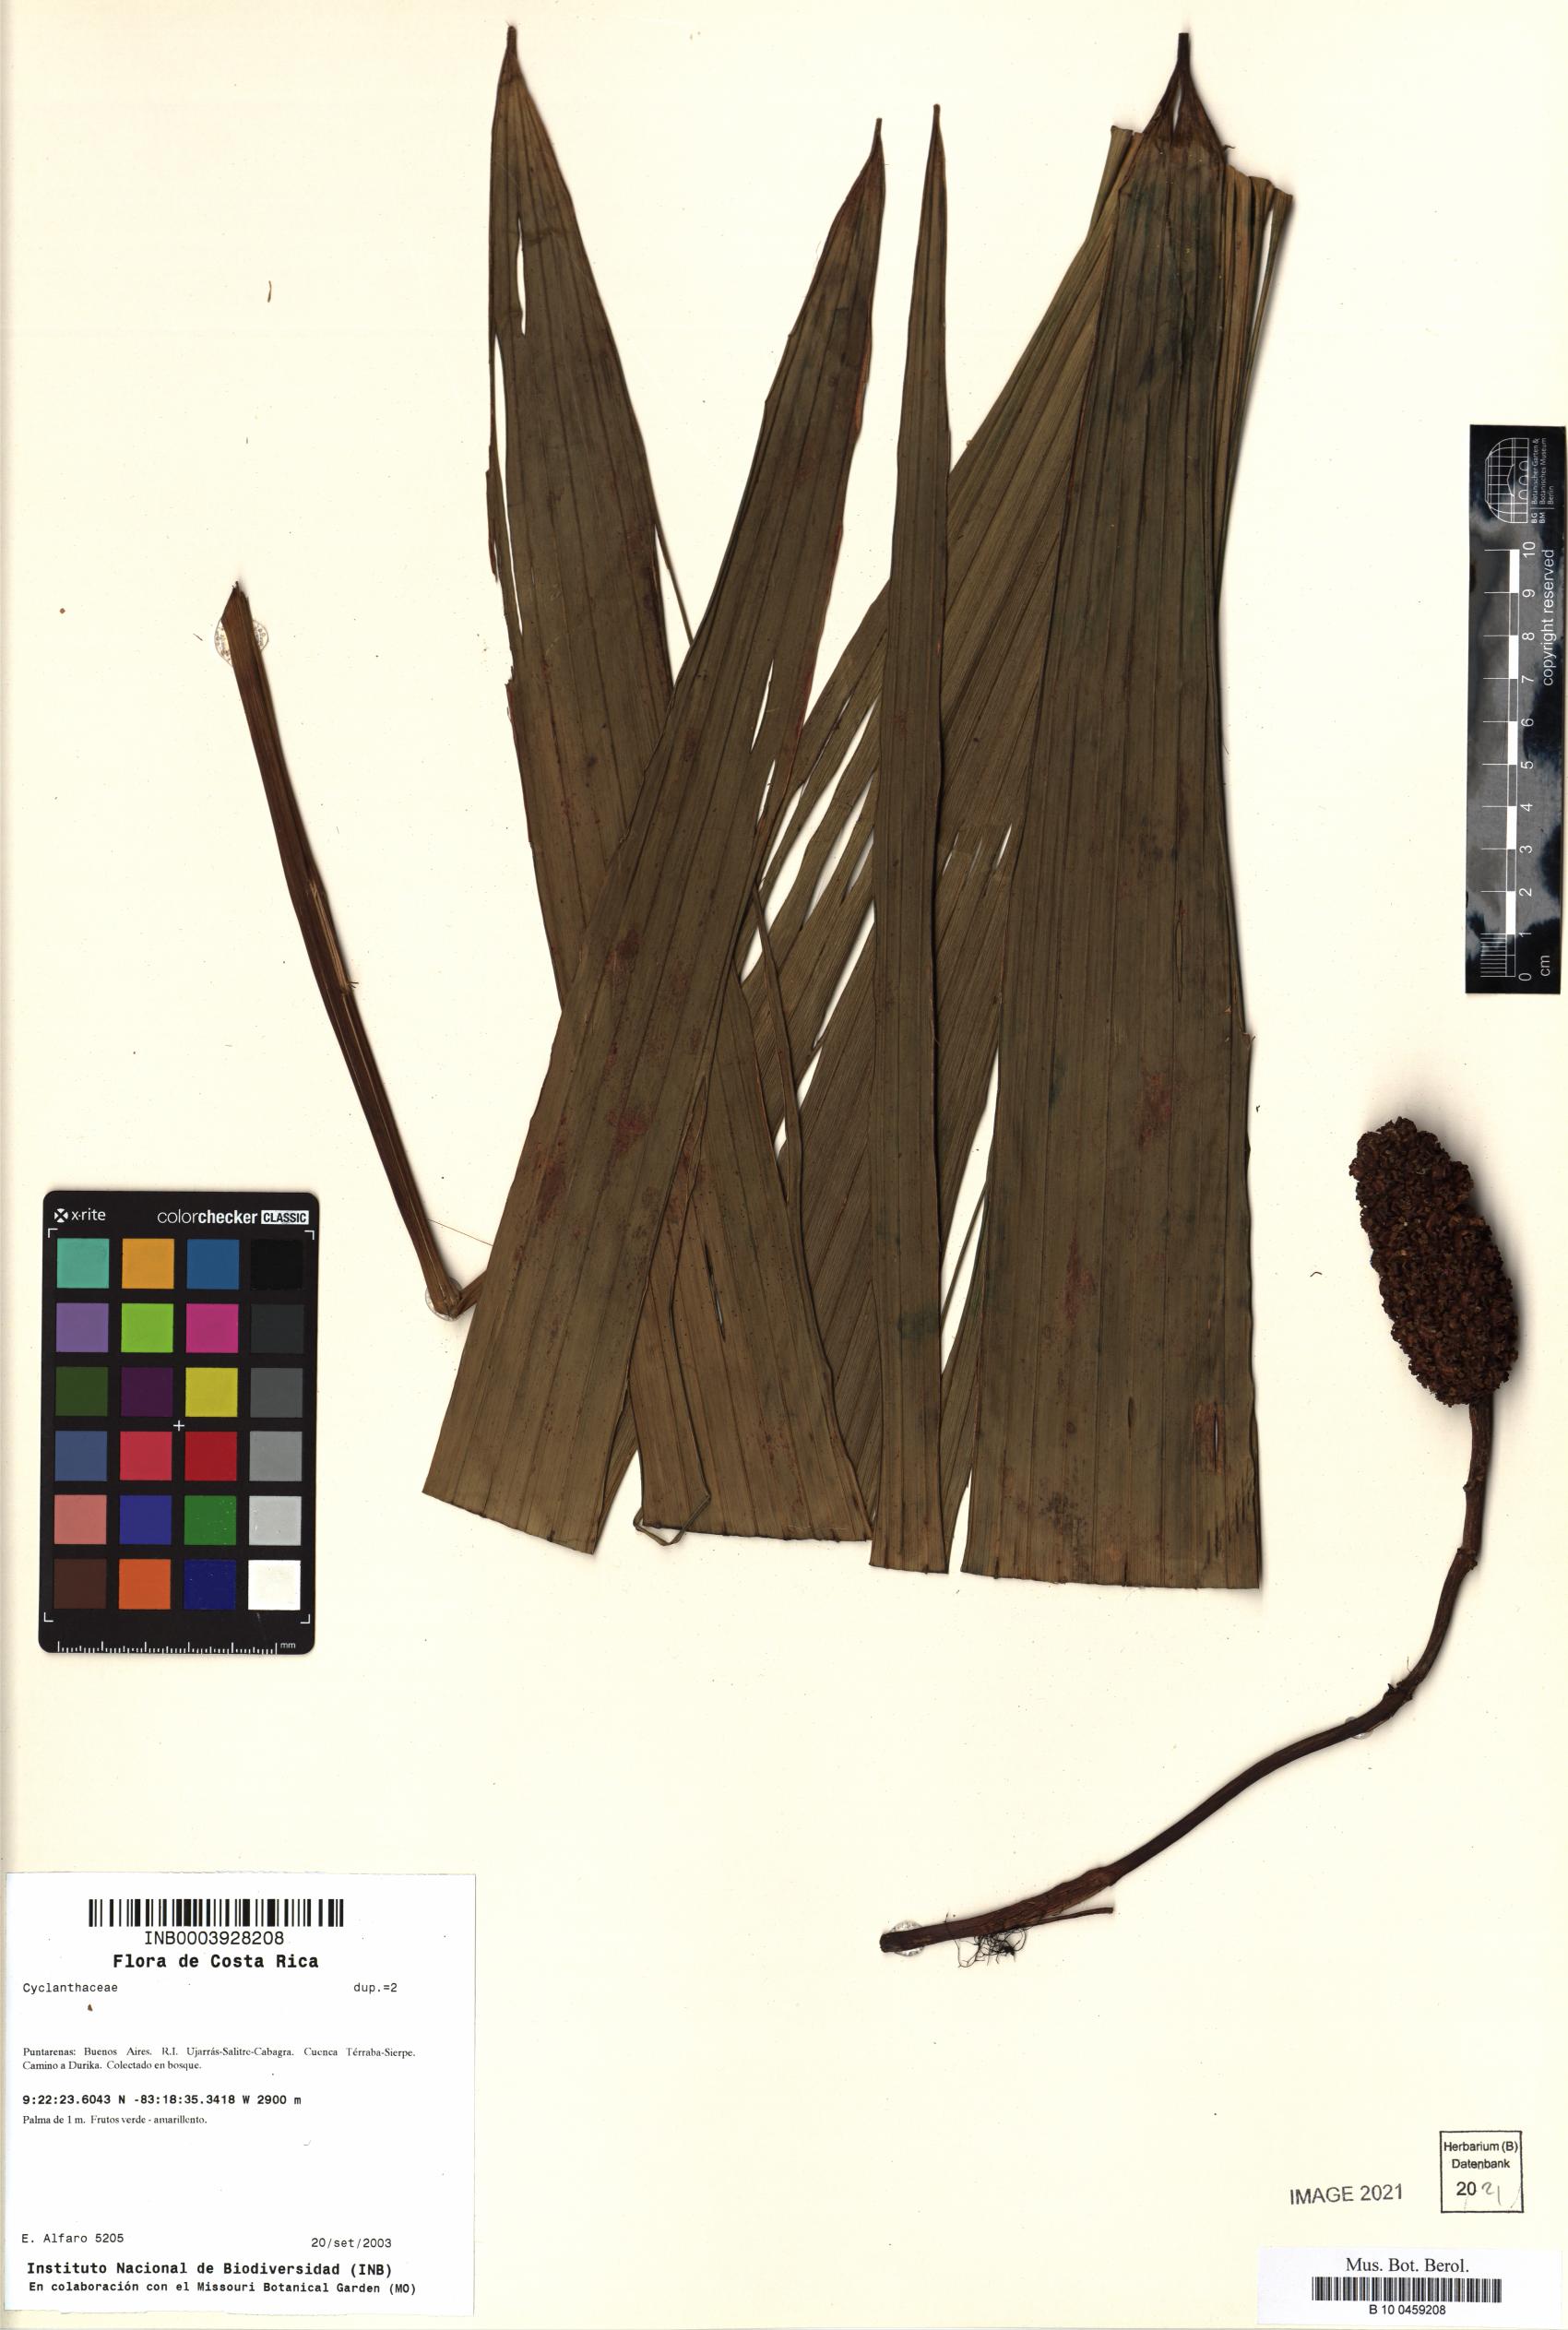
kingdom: Plantae
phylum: Tracheophyta
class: Liliopsida
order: Pandanales
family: Cyclanthaceae
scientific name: Cyclanthaceae
